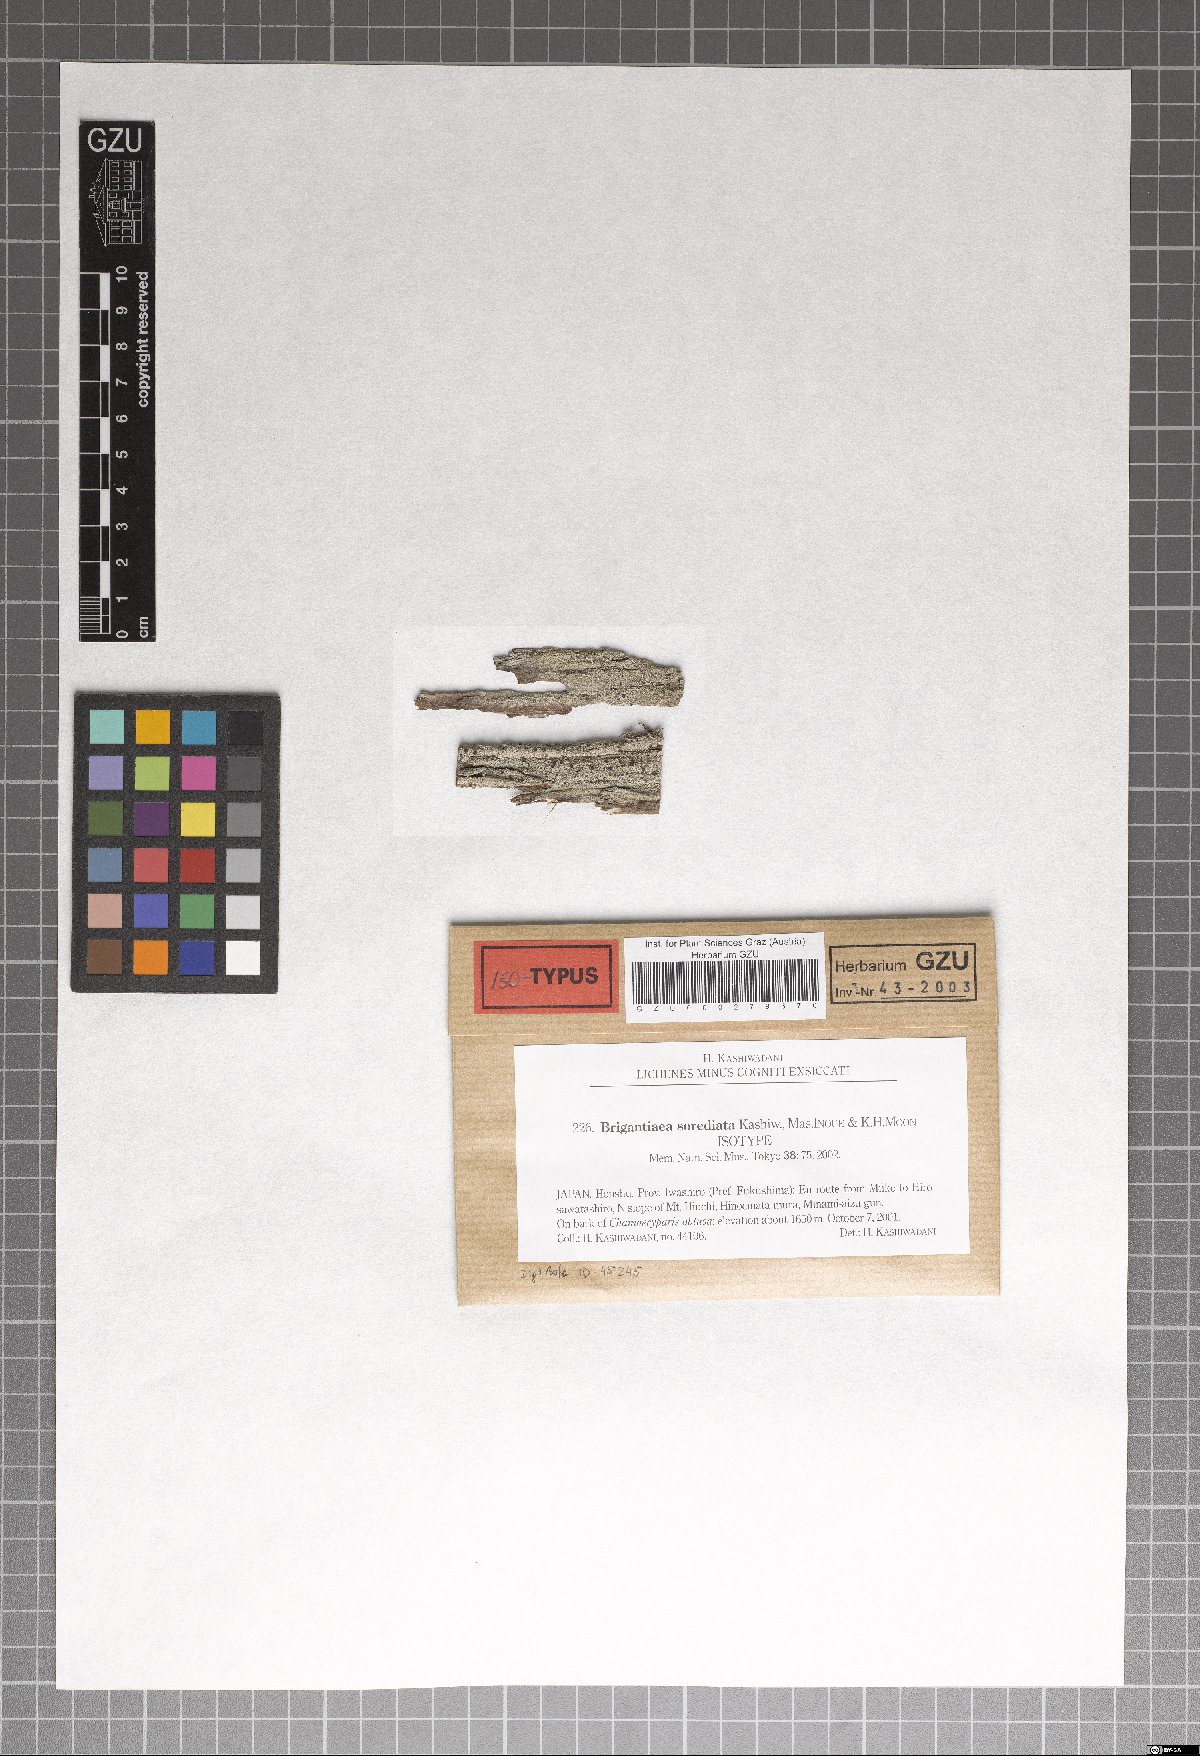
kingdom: Fungi
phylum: Ascomycota
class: Lecanoromycetes
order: Teloschistales
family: Brigantiaeaceae
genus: Brigantiaea
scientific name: Brigantiaea sorediata
